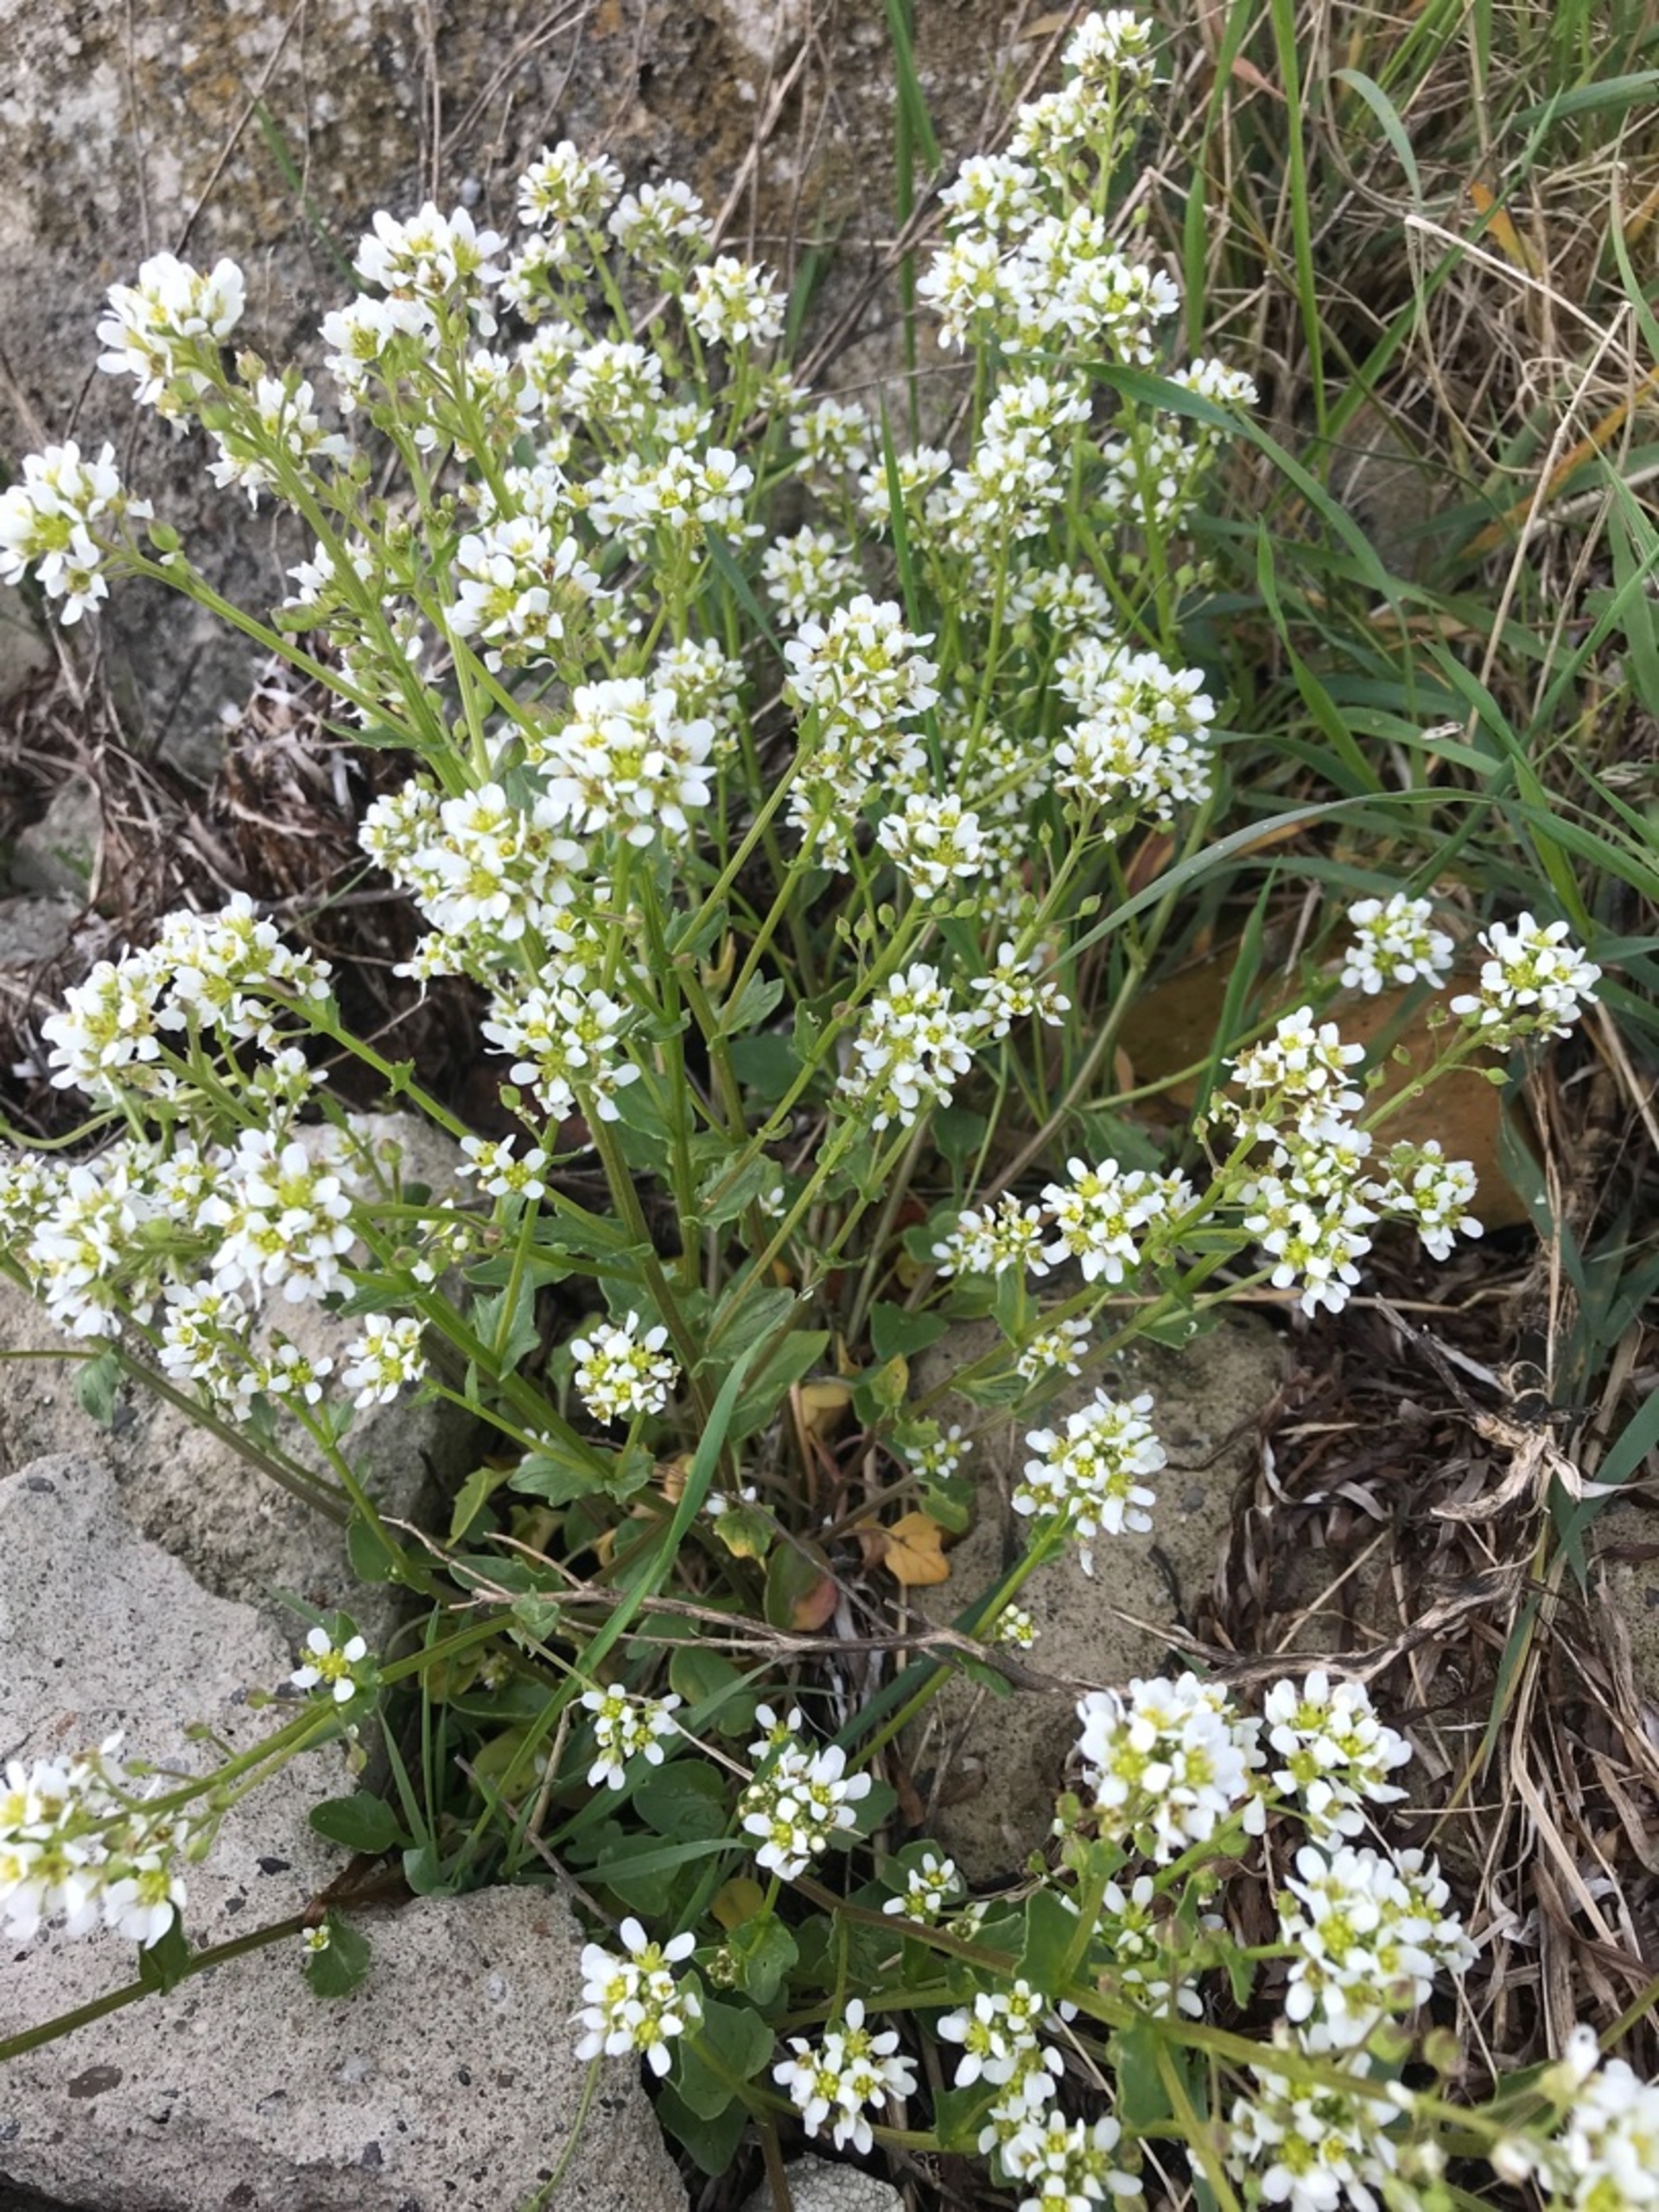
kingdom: Plantae
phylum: Tracheophyta
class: Magnoliopsida
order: Brassicales
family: Brassicaceae
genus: Cochlearia
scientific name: Cochlearia officinalis
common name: Læge-kokleare (underart)
